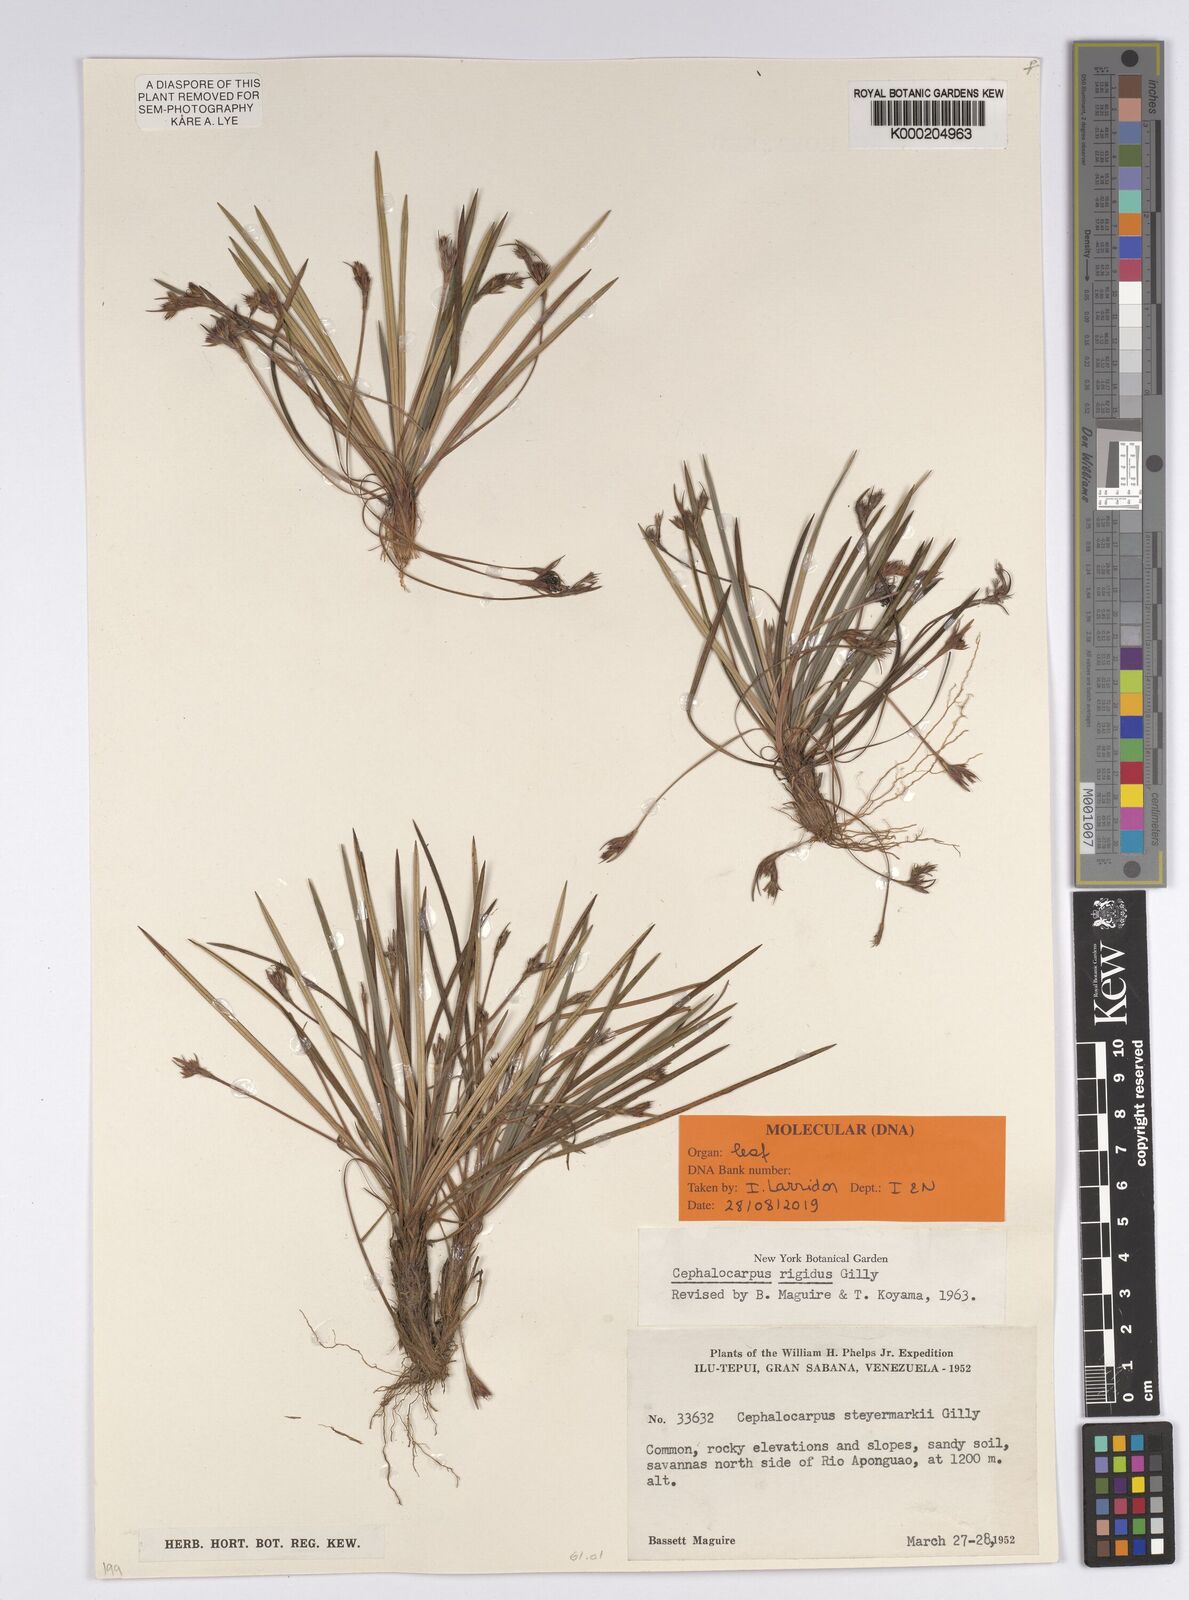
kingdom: Plantae
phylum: Tracheophyta
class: Liliopsida
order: Poales
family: Cyperaceae
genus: Cephalocarpus
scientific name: Cephalocarpus
